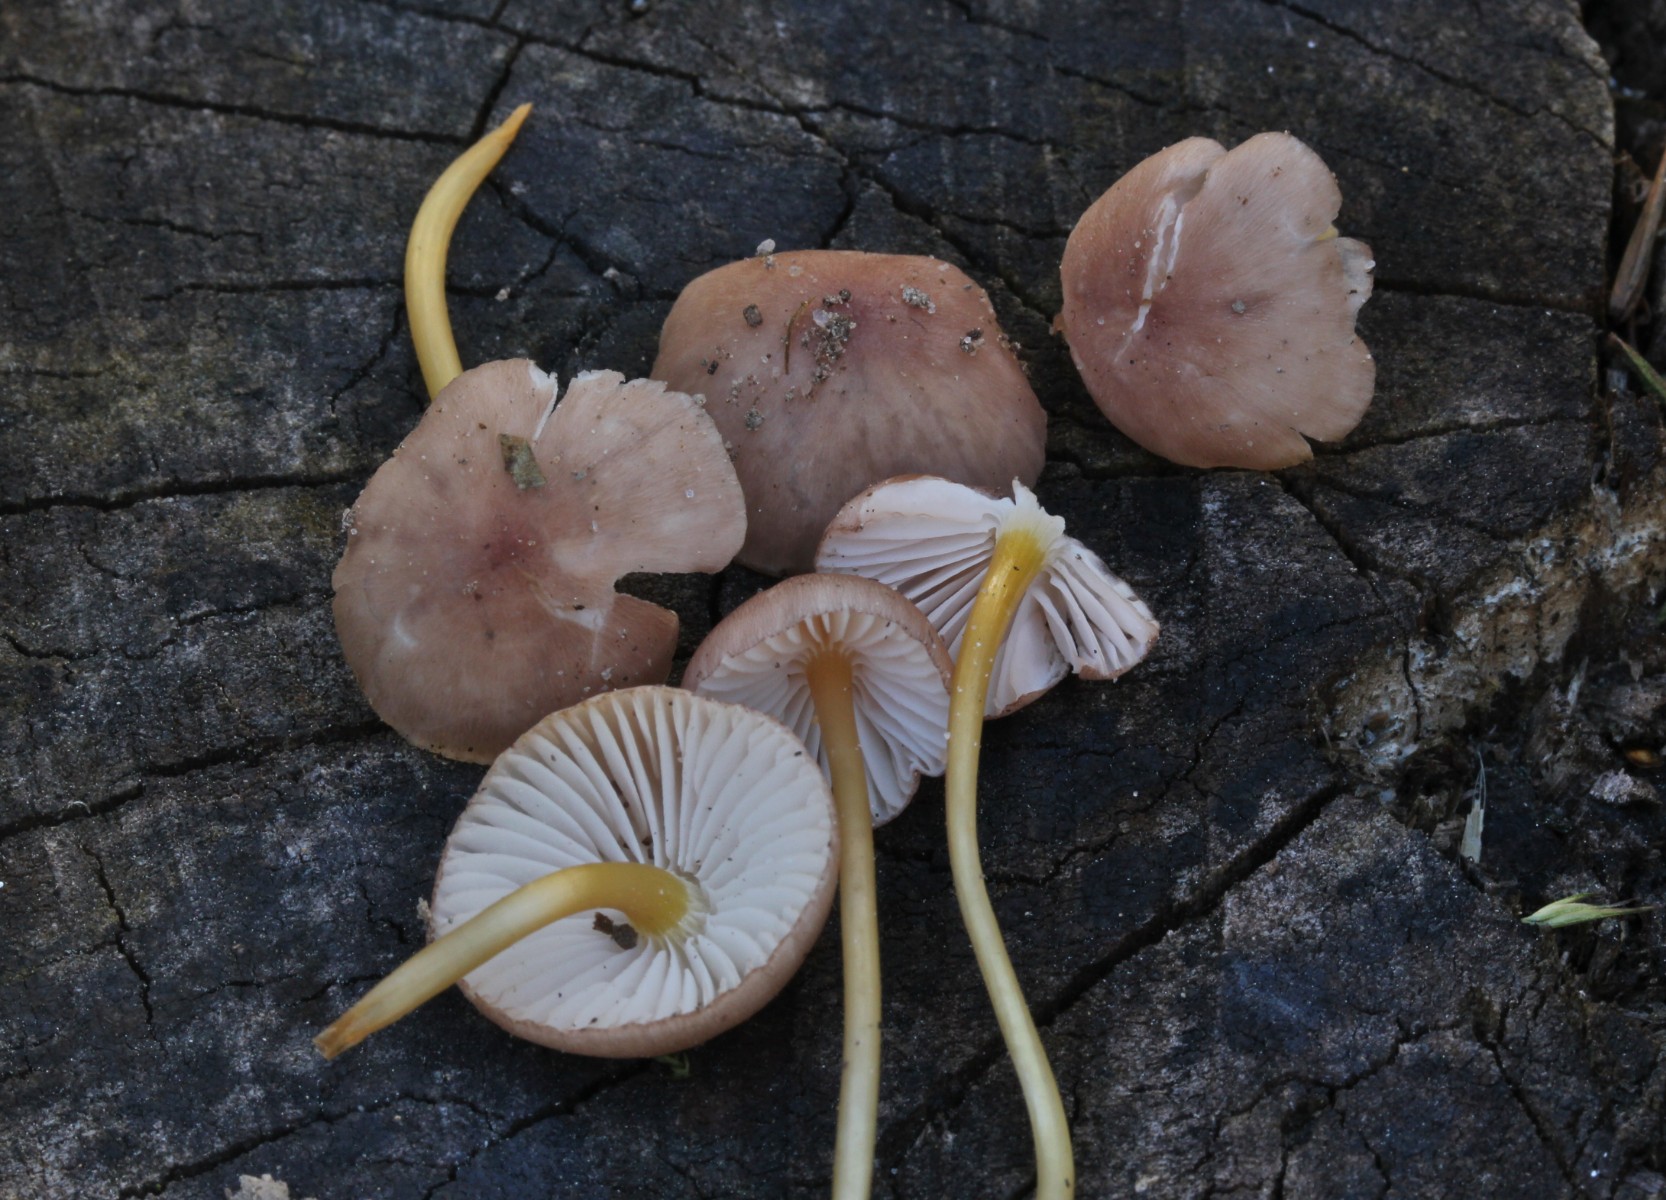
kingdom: Fungi
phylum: Basidiomycota
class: Agaricomycetes
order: Agaricales
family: Mycenaceae
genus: Mycena
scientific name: Mycena renati
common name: smuk huesvamp
